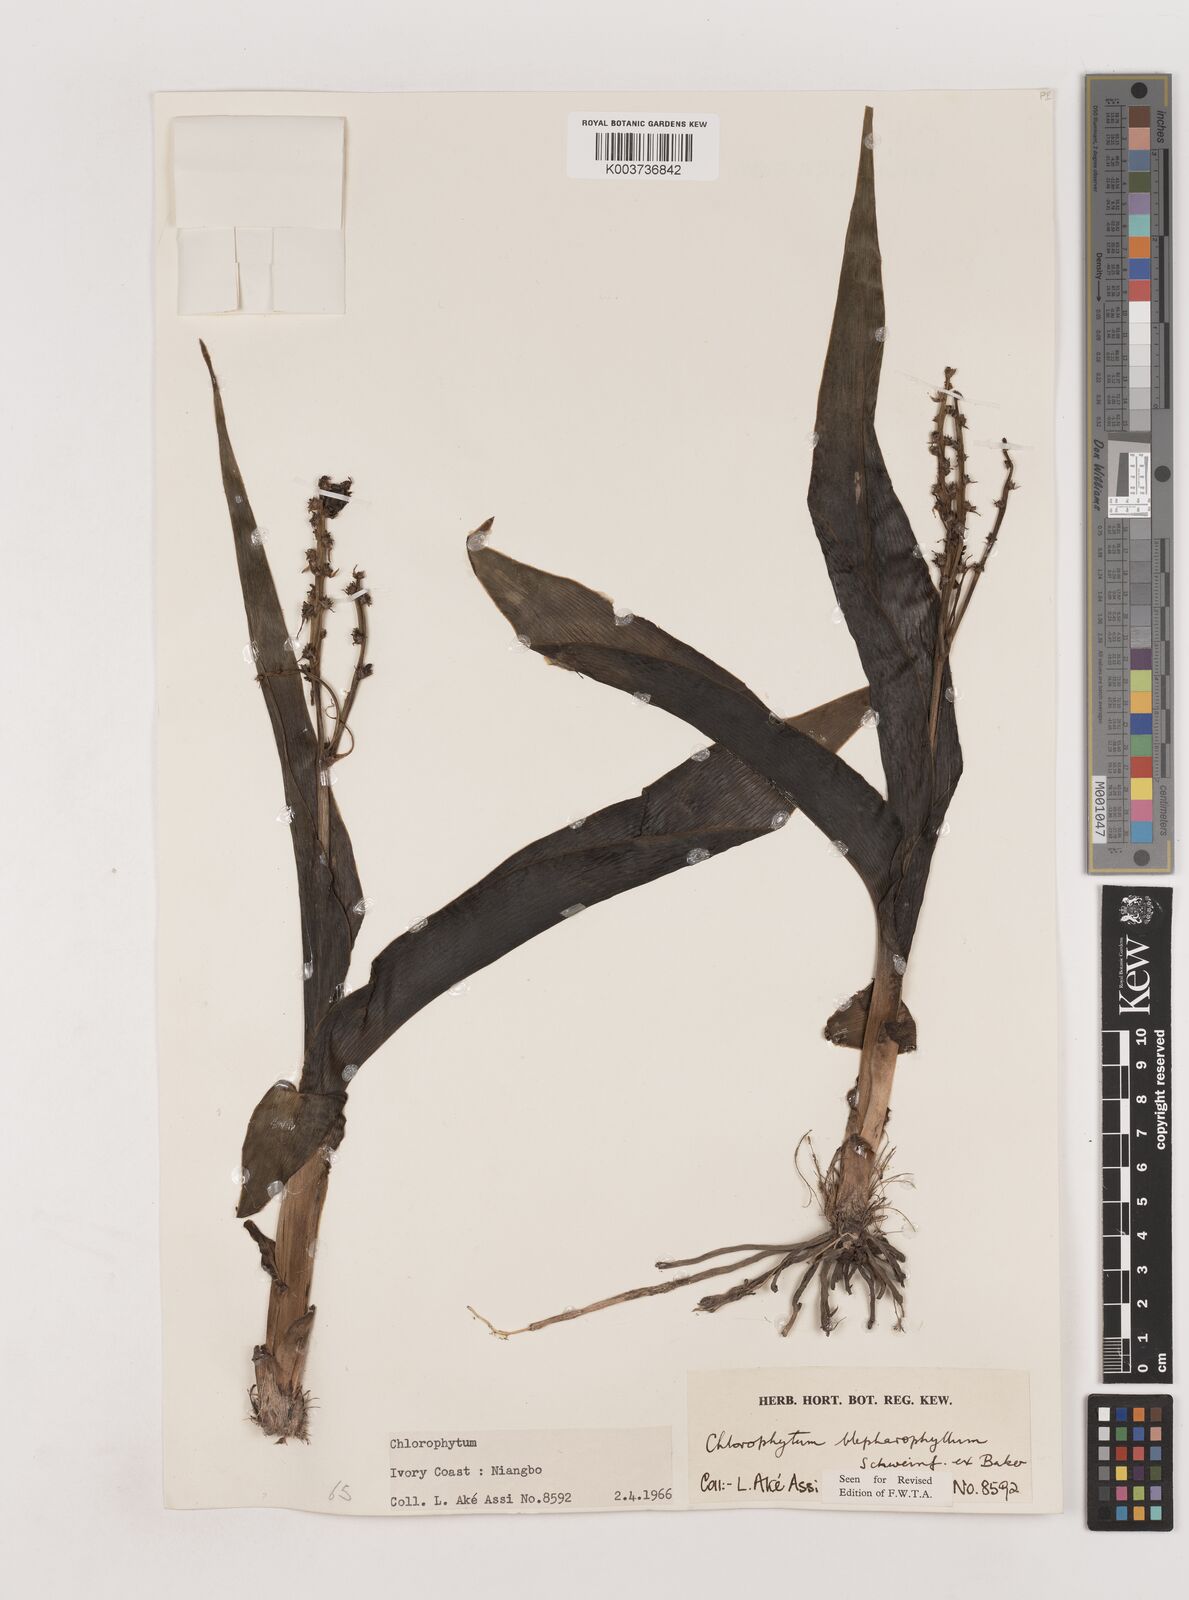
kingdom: Plantae
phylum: Tracheophyta
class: Liliopsida
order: Asparagales
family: Asparagaceae
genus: Chlorophytum
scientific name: Chlorophytum blepharophyllum
